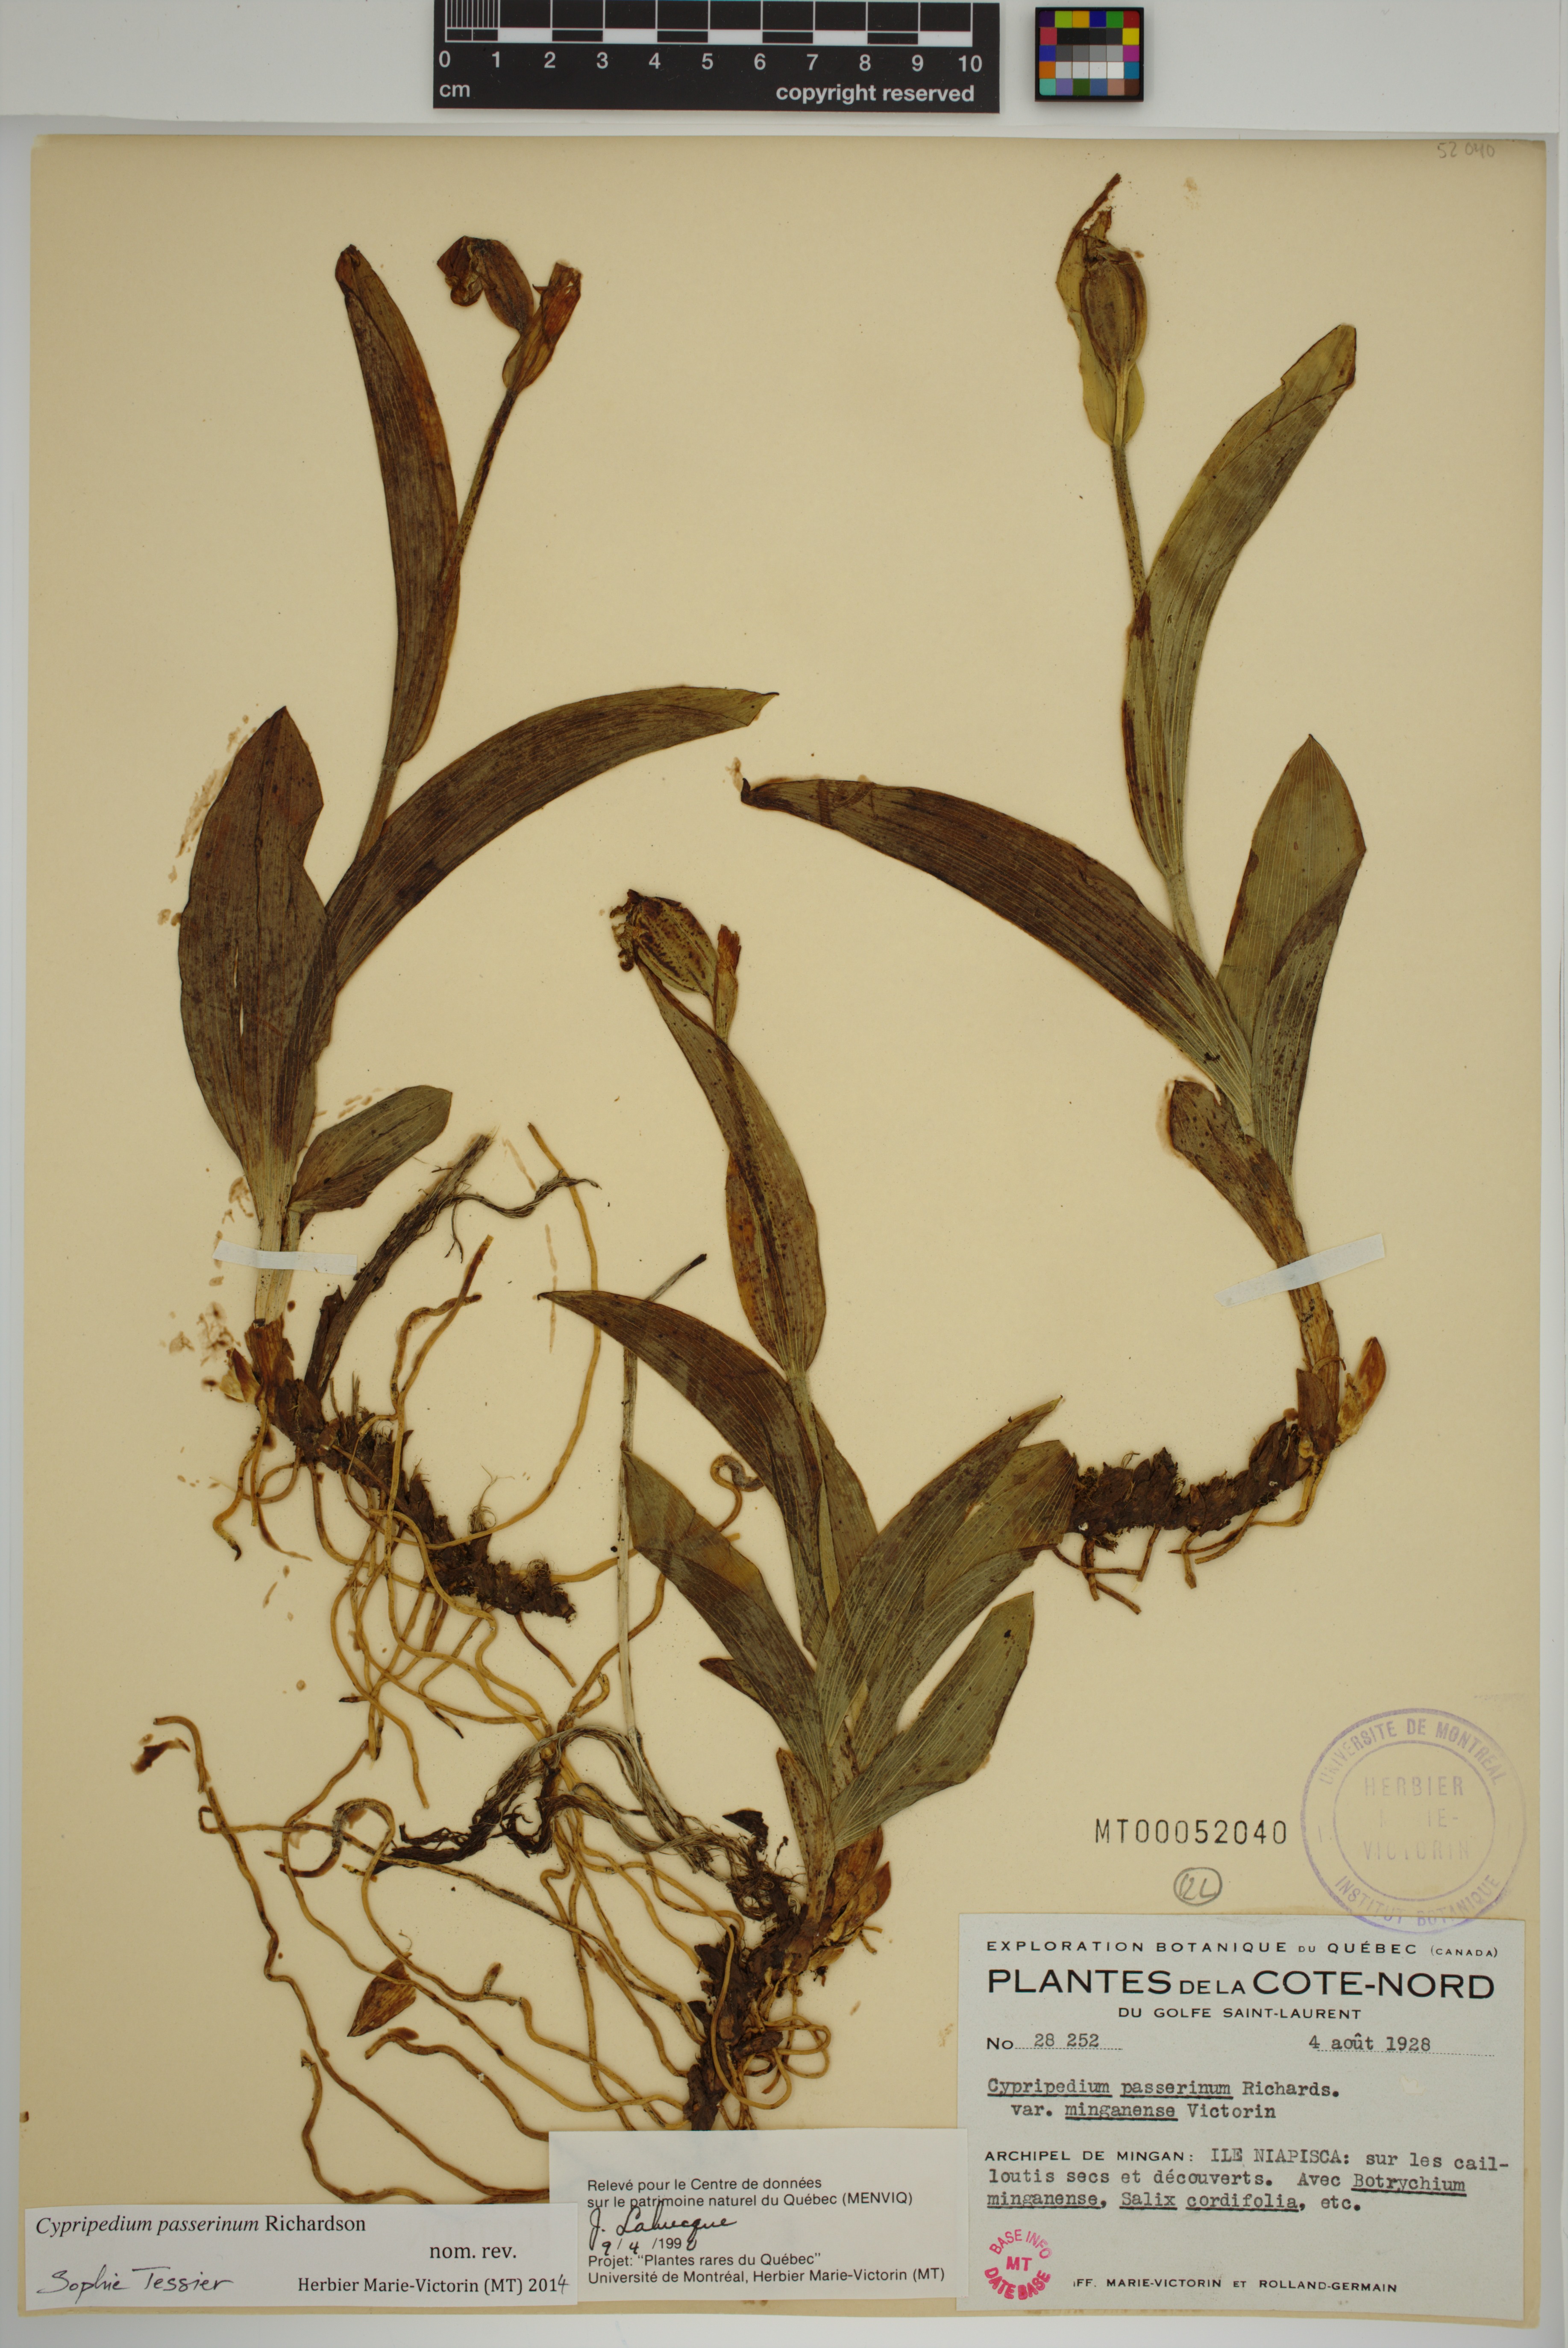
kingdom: Plantae
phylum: Tracheophyta
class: Liliopsida
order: Asparagales
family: Orchidaceae
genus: Cypripedium
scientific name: Cypripedium passerinum
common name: Sparrow's-egg lady's-slipper
